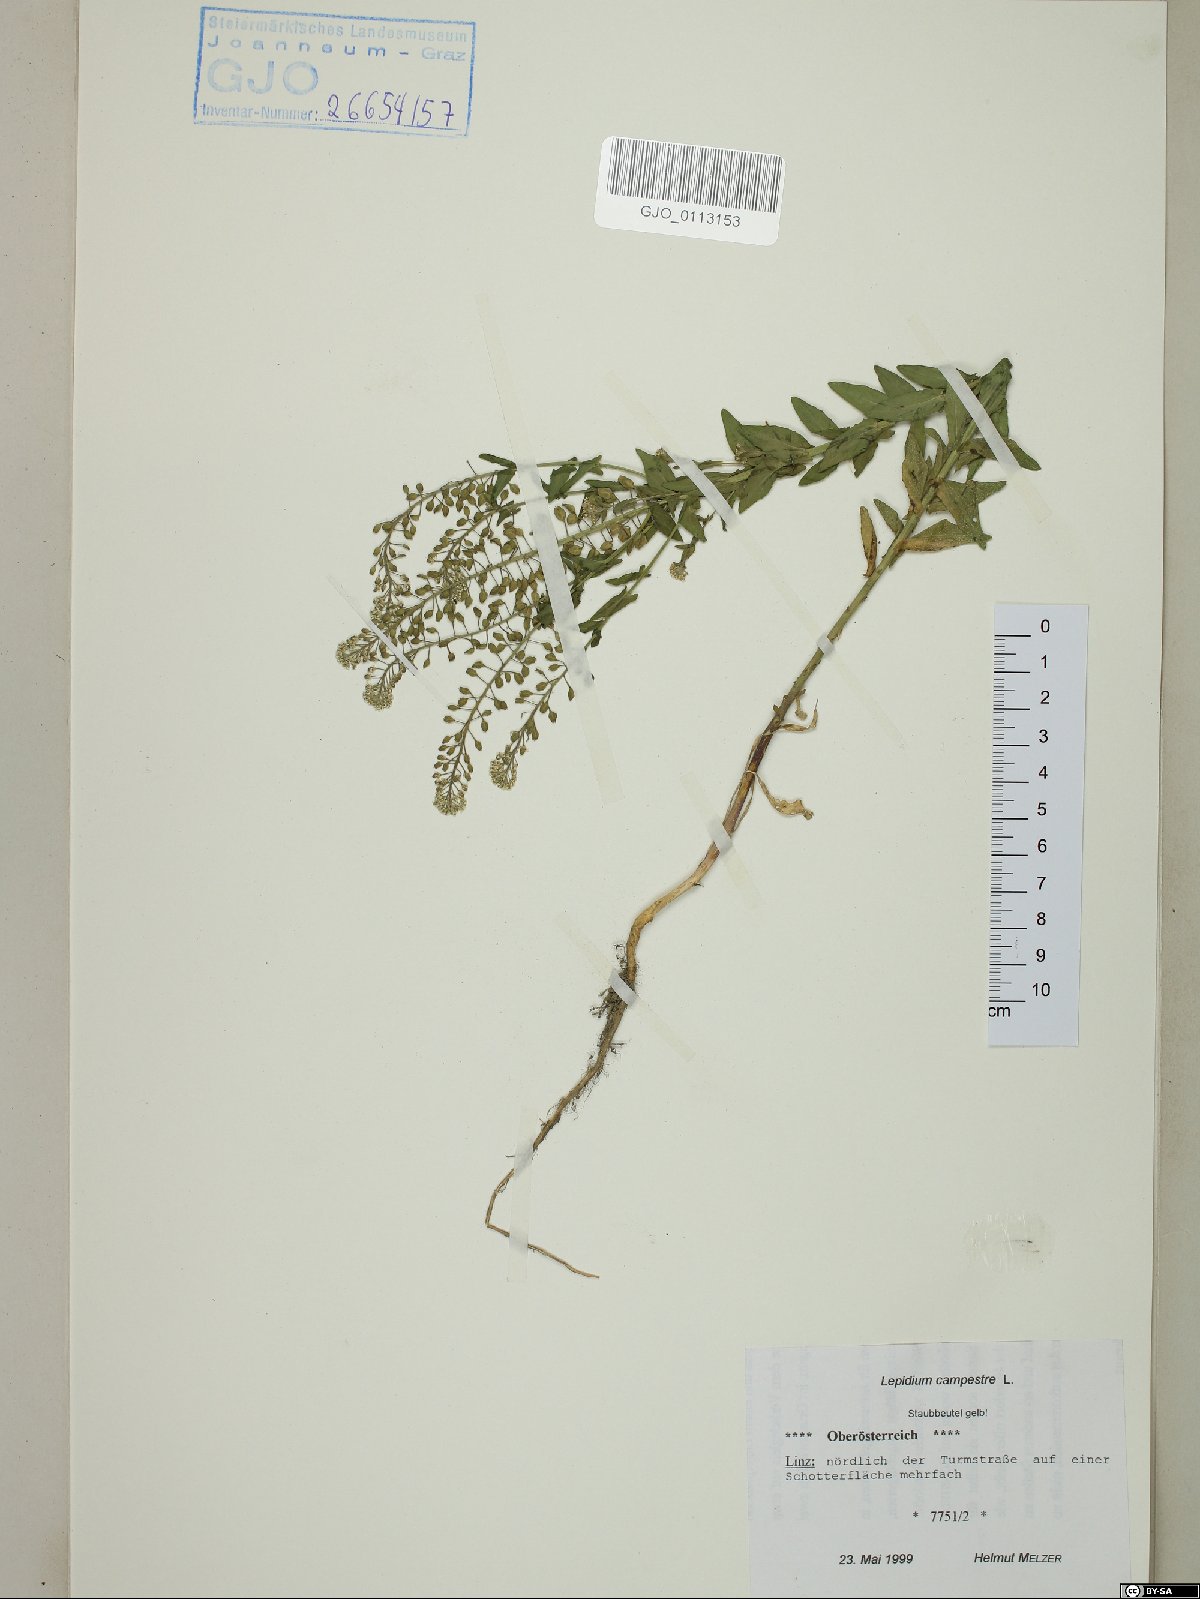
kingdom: Plantae
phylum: Tracheophyta
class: Magnoliopsida
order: Brassicales
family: Brassicaceae
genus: Lepidium
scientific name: Lepidium campestre
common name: Field pepperwort
